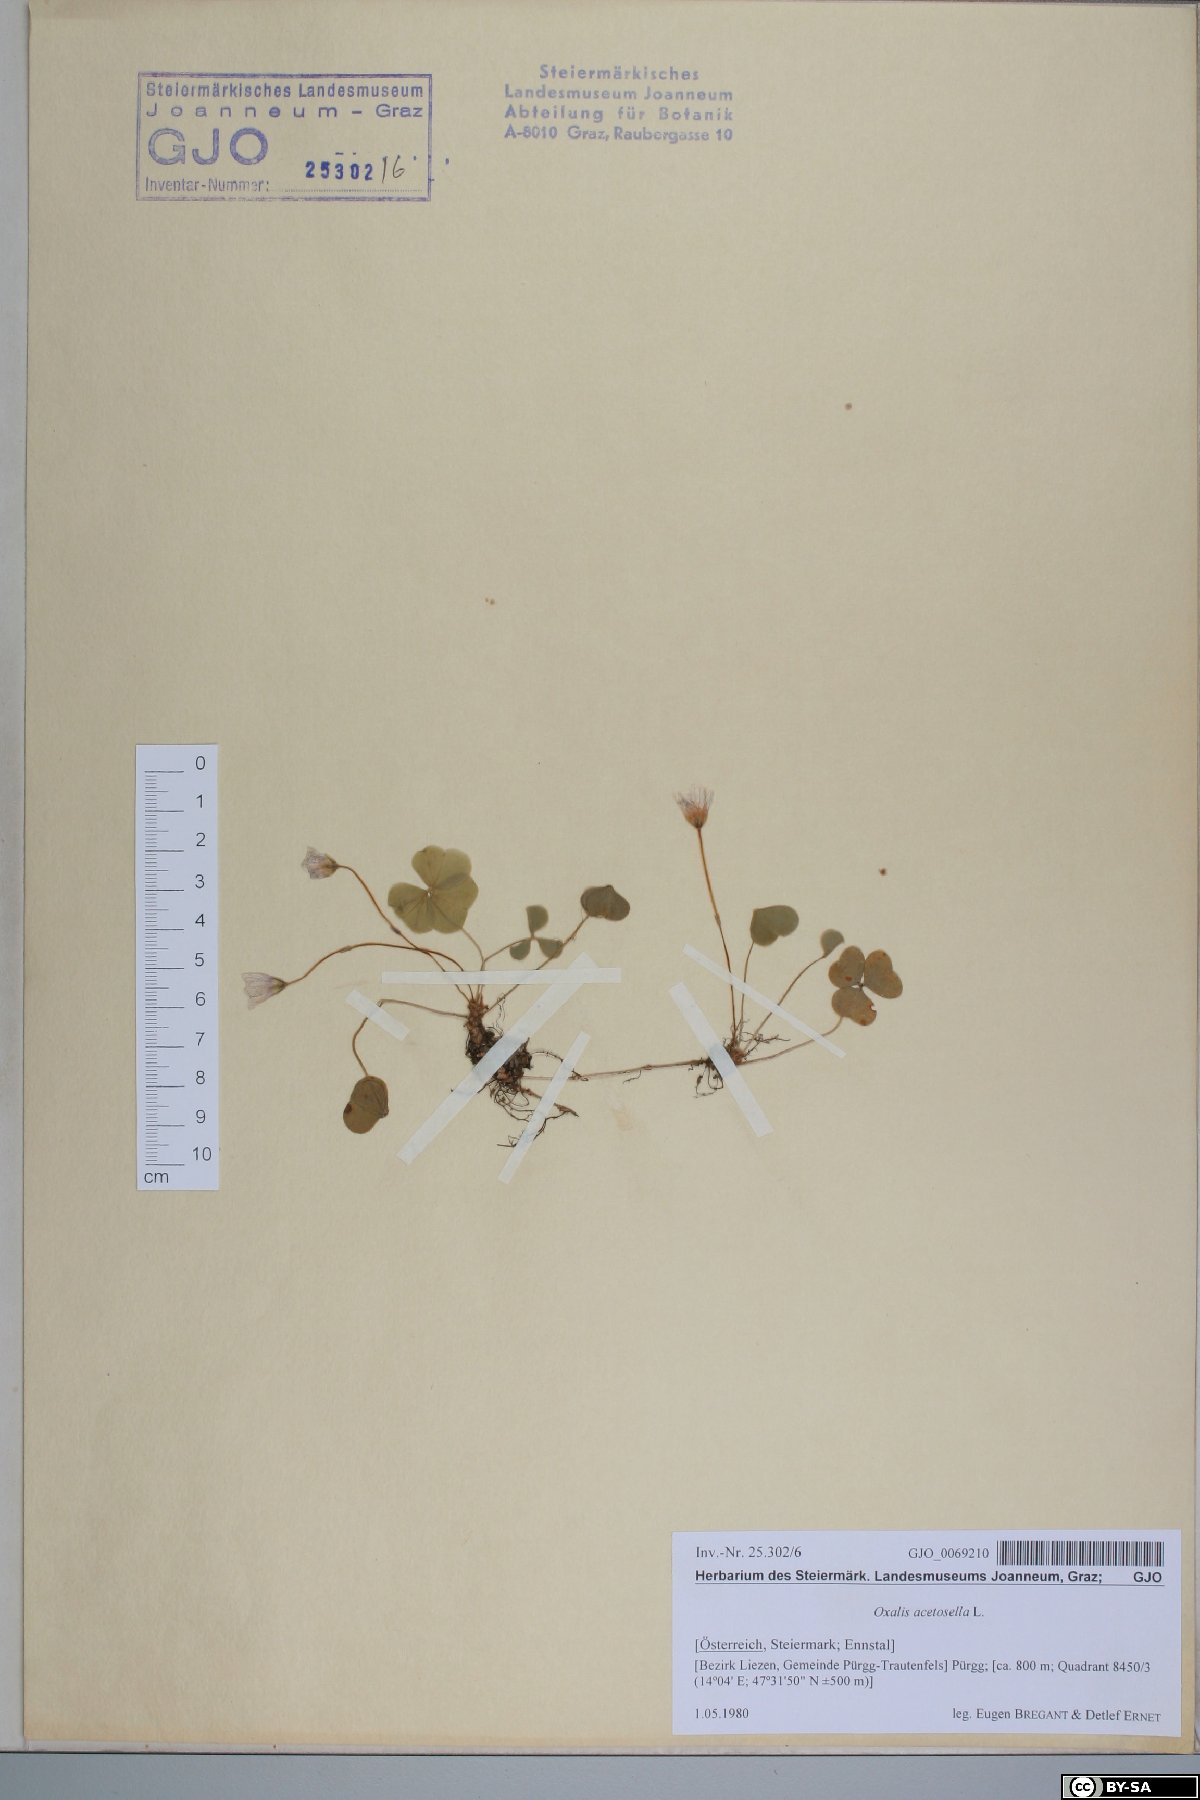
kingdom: Plantae
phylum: Tracheophyta
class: Magnoliopsida
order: Oxalidales
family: Oxalidaceae
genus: Oxalis
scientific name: Oxalis acetosella
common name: Wood-sorrel
